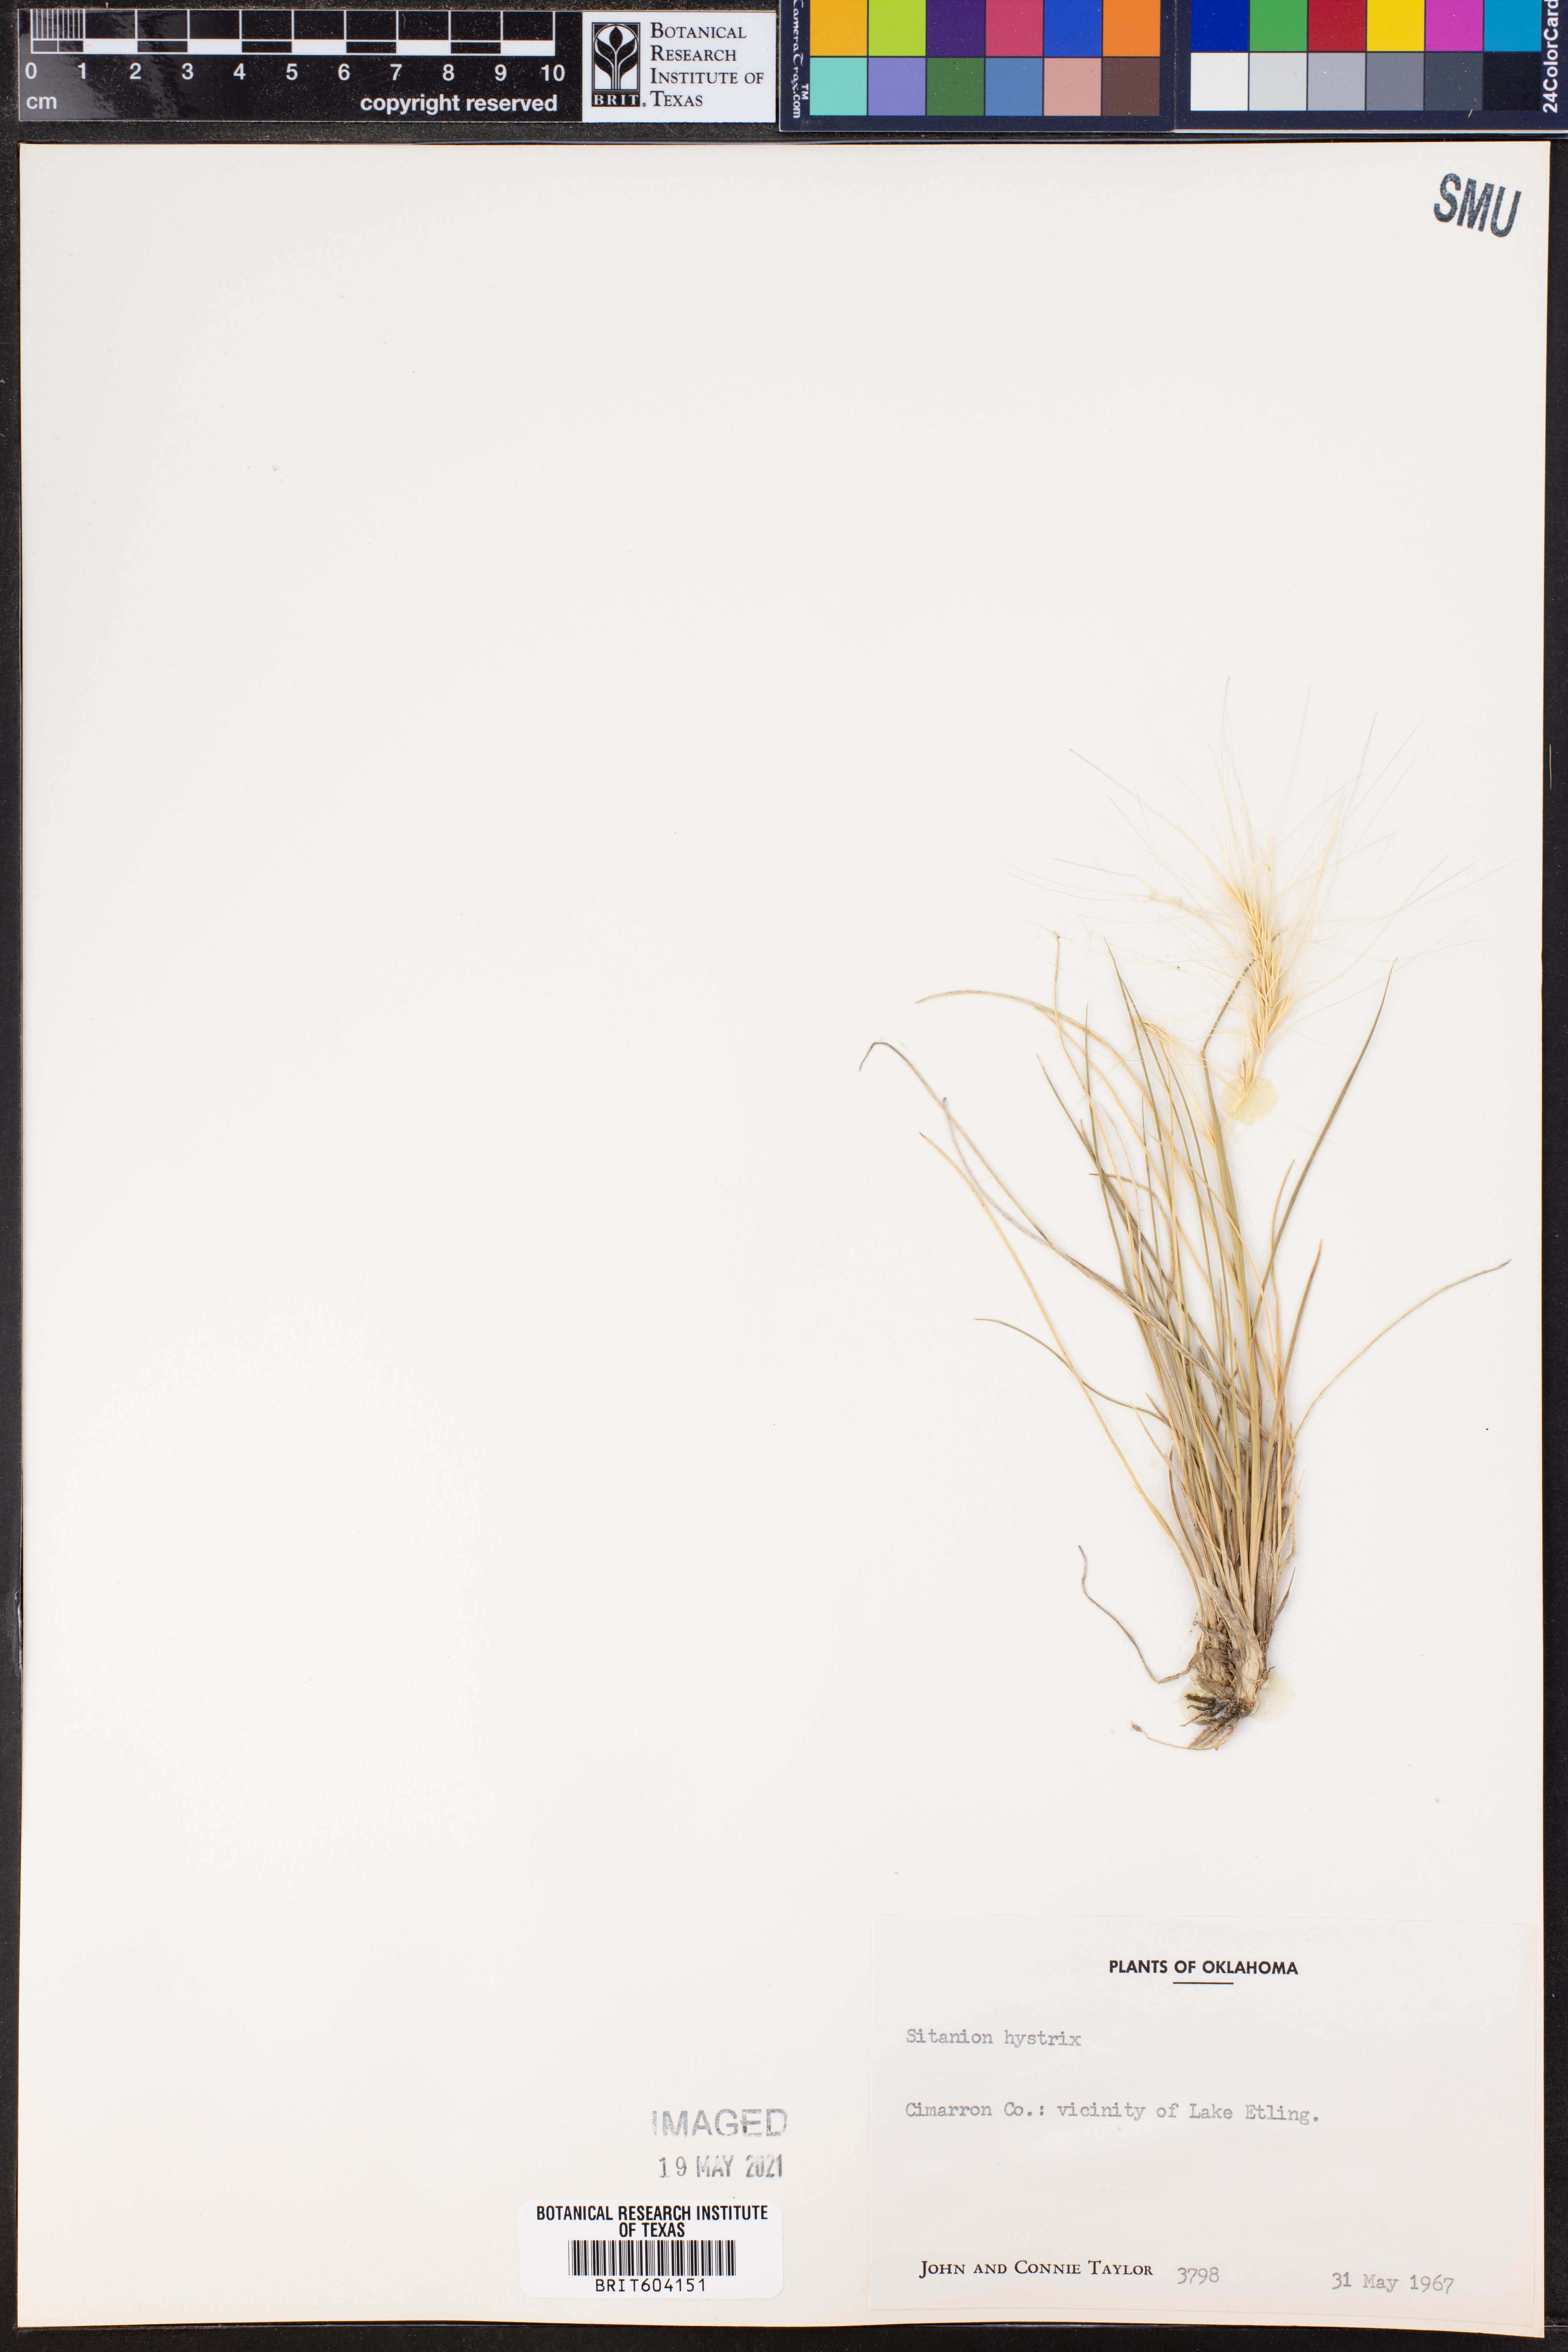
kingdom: Plantae
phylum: Tracheophyta
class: Liliopsida
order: Poales
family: Poaceae
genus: Elymus
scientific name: Elymus elymoides
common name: Bottlebrush squirreltail
